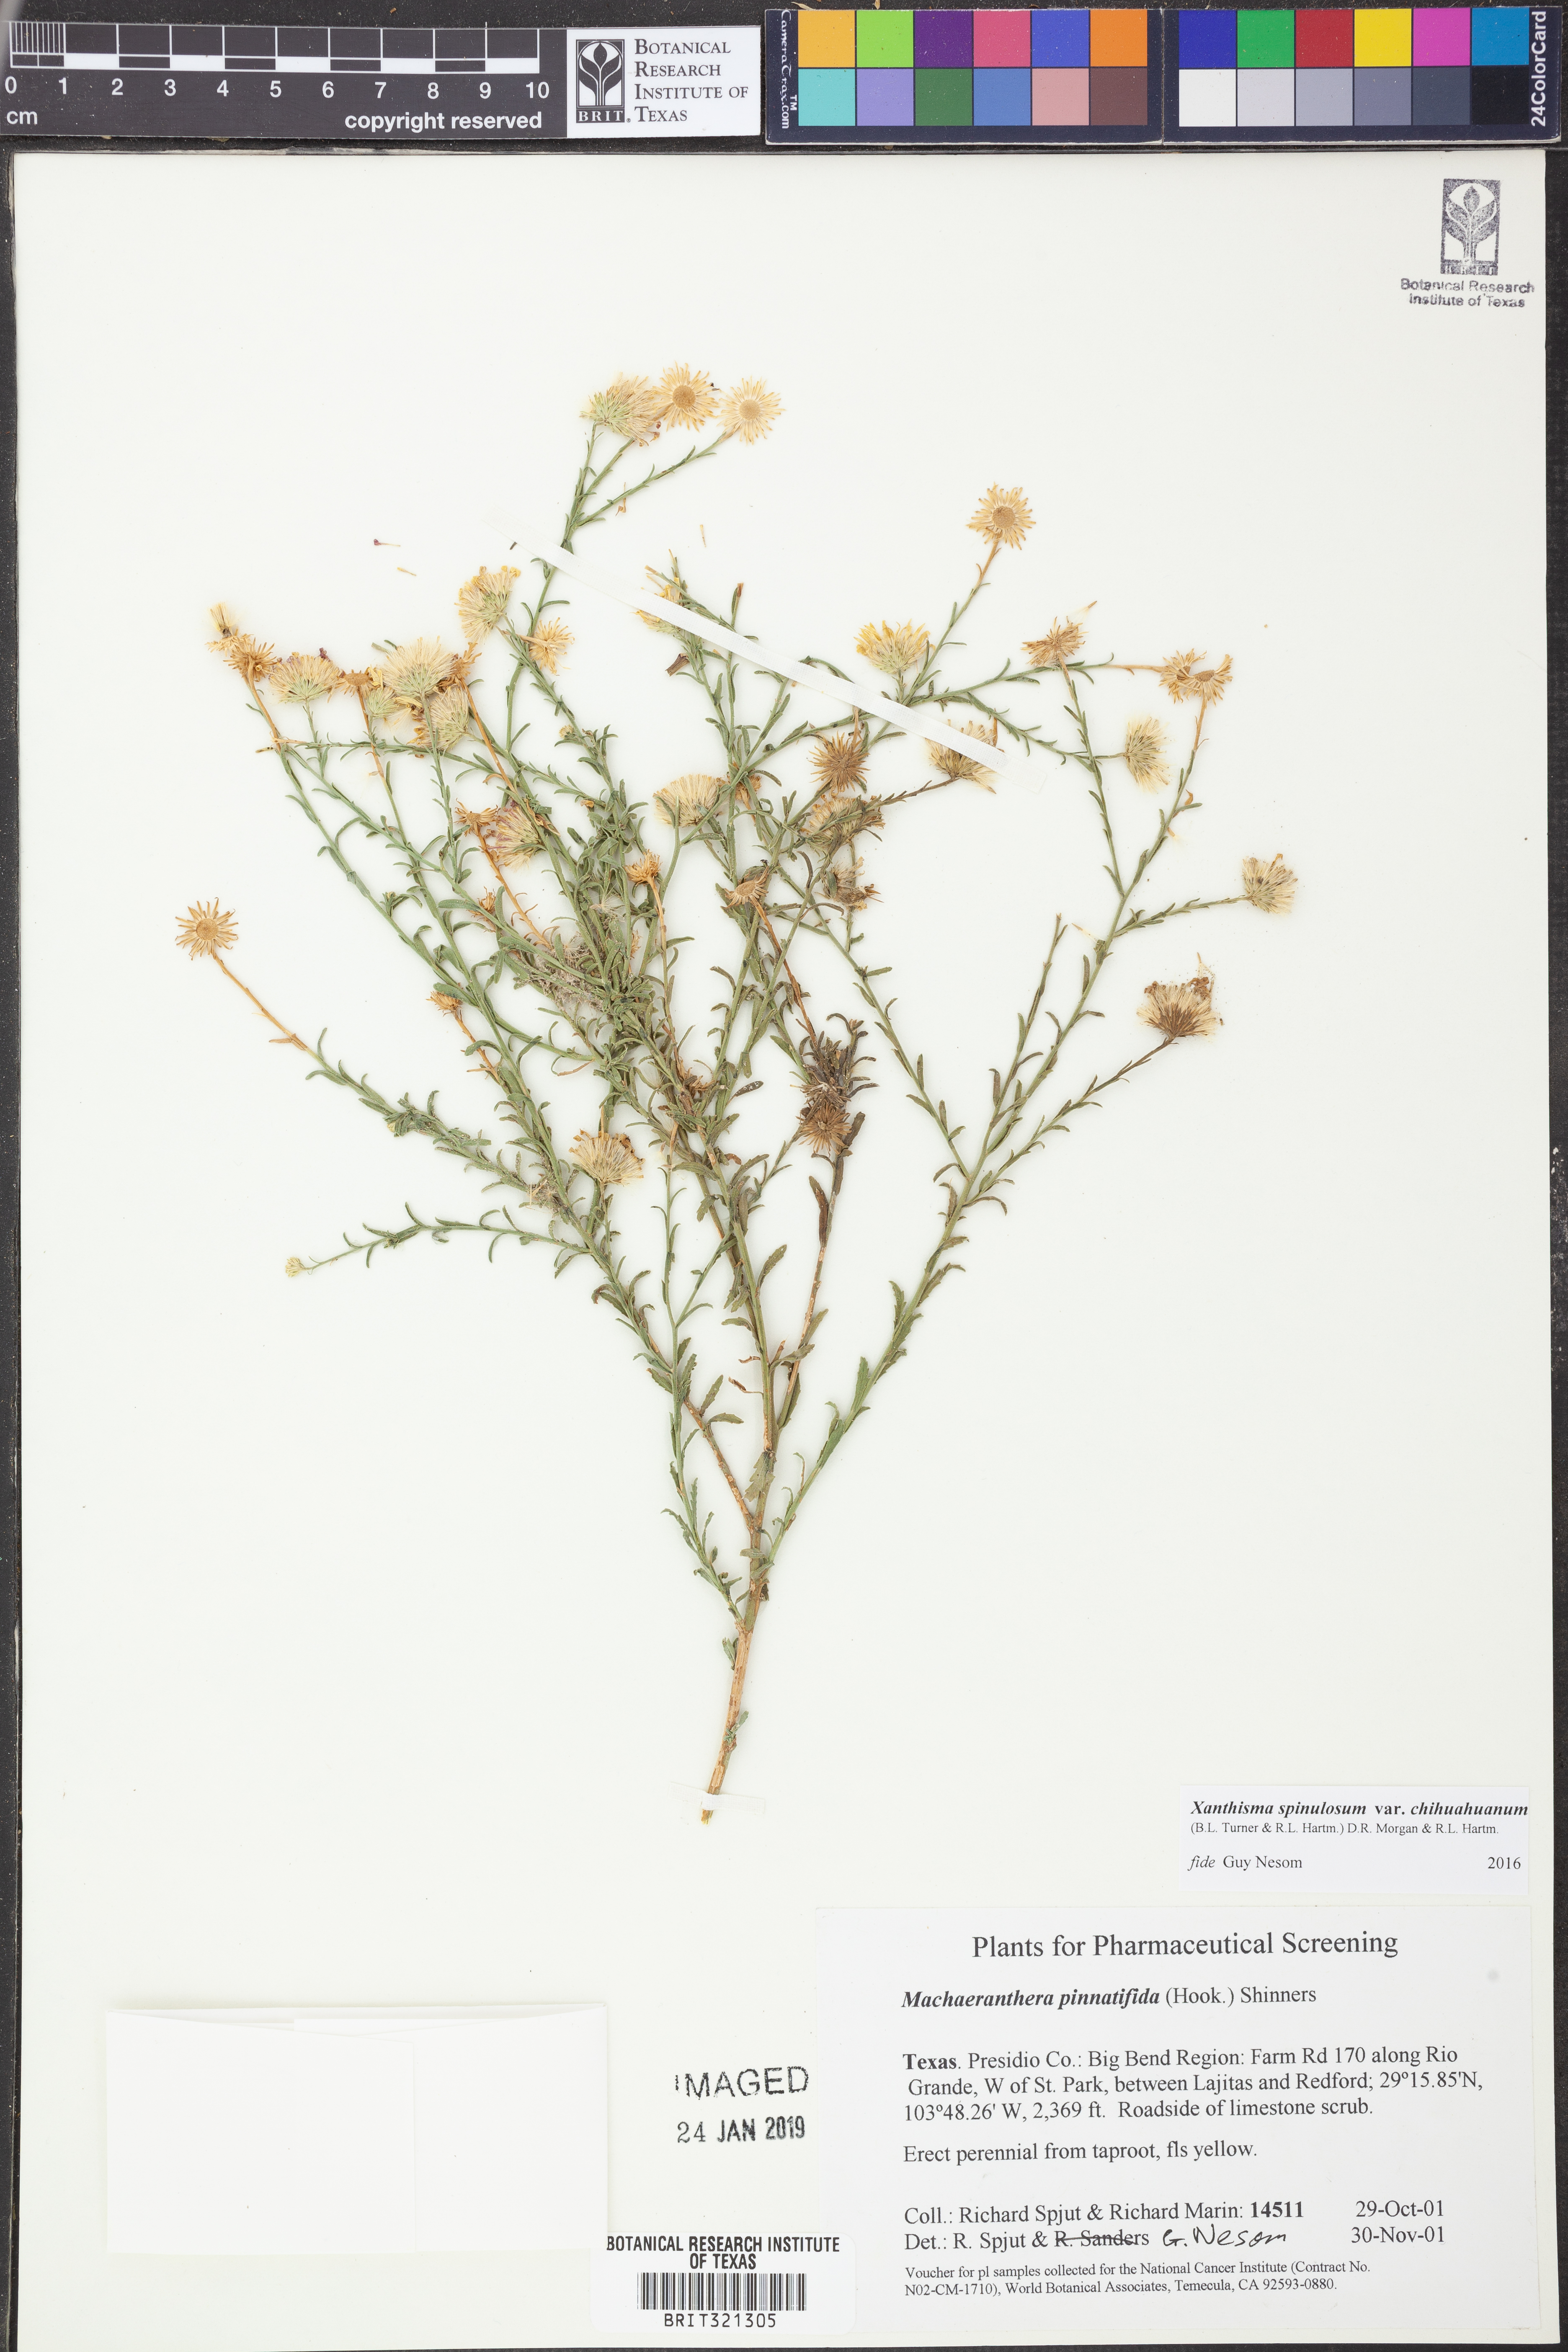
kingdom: Plantae
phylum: Tracheophyta
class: Magnoliopsida
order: Asterales
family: Asteraceae
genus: Xanthisma
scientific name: Xanthisma spinulosum
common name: Spiny goldenweed
